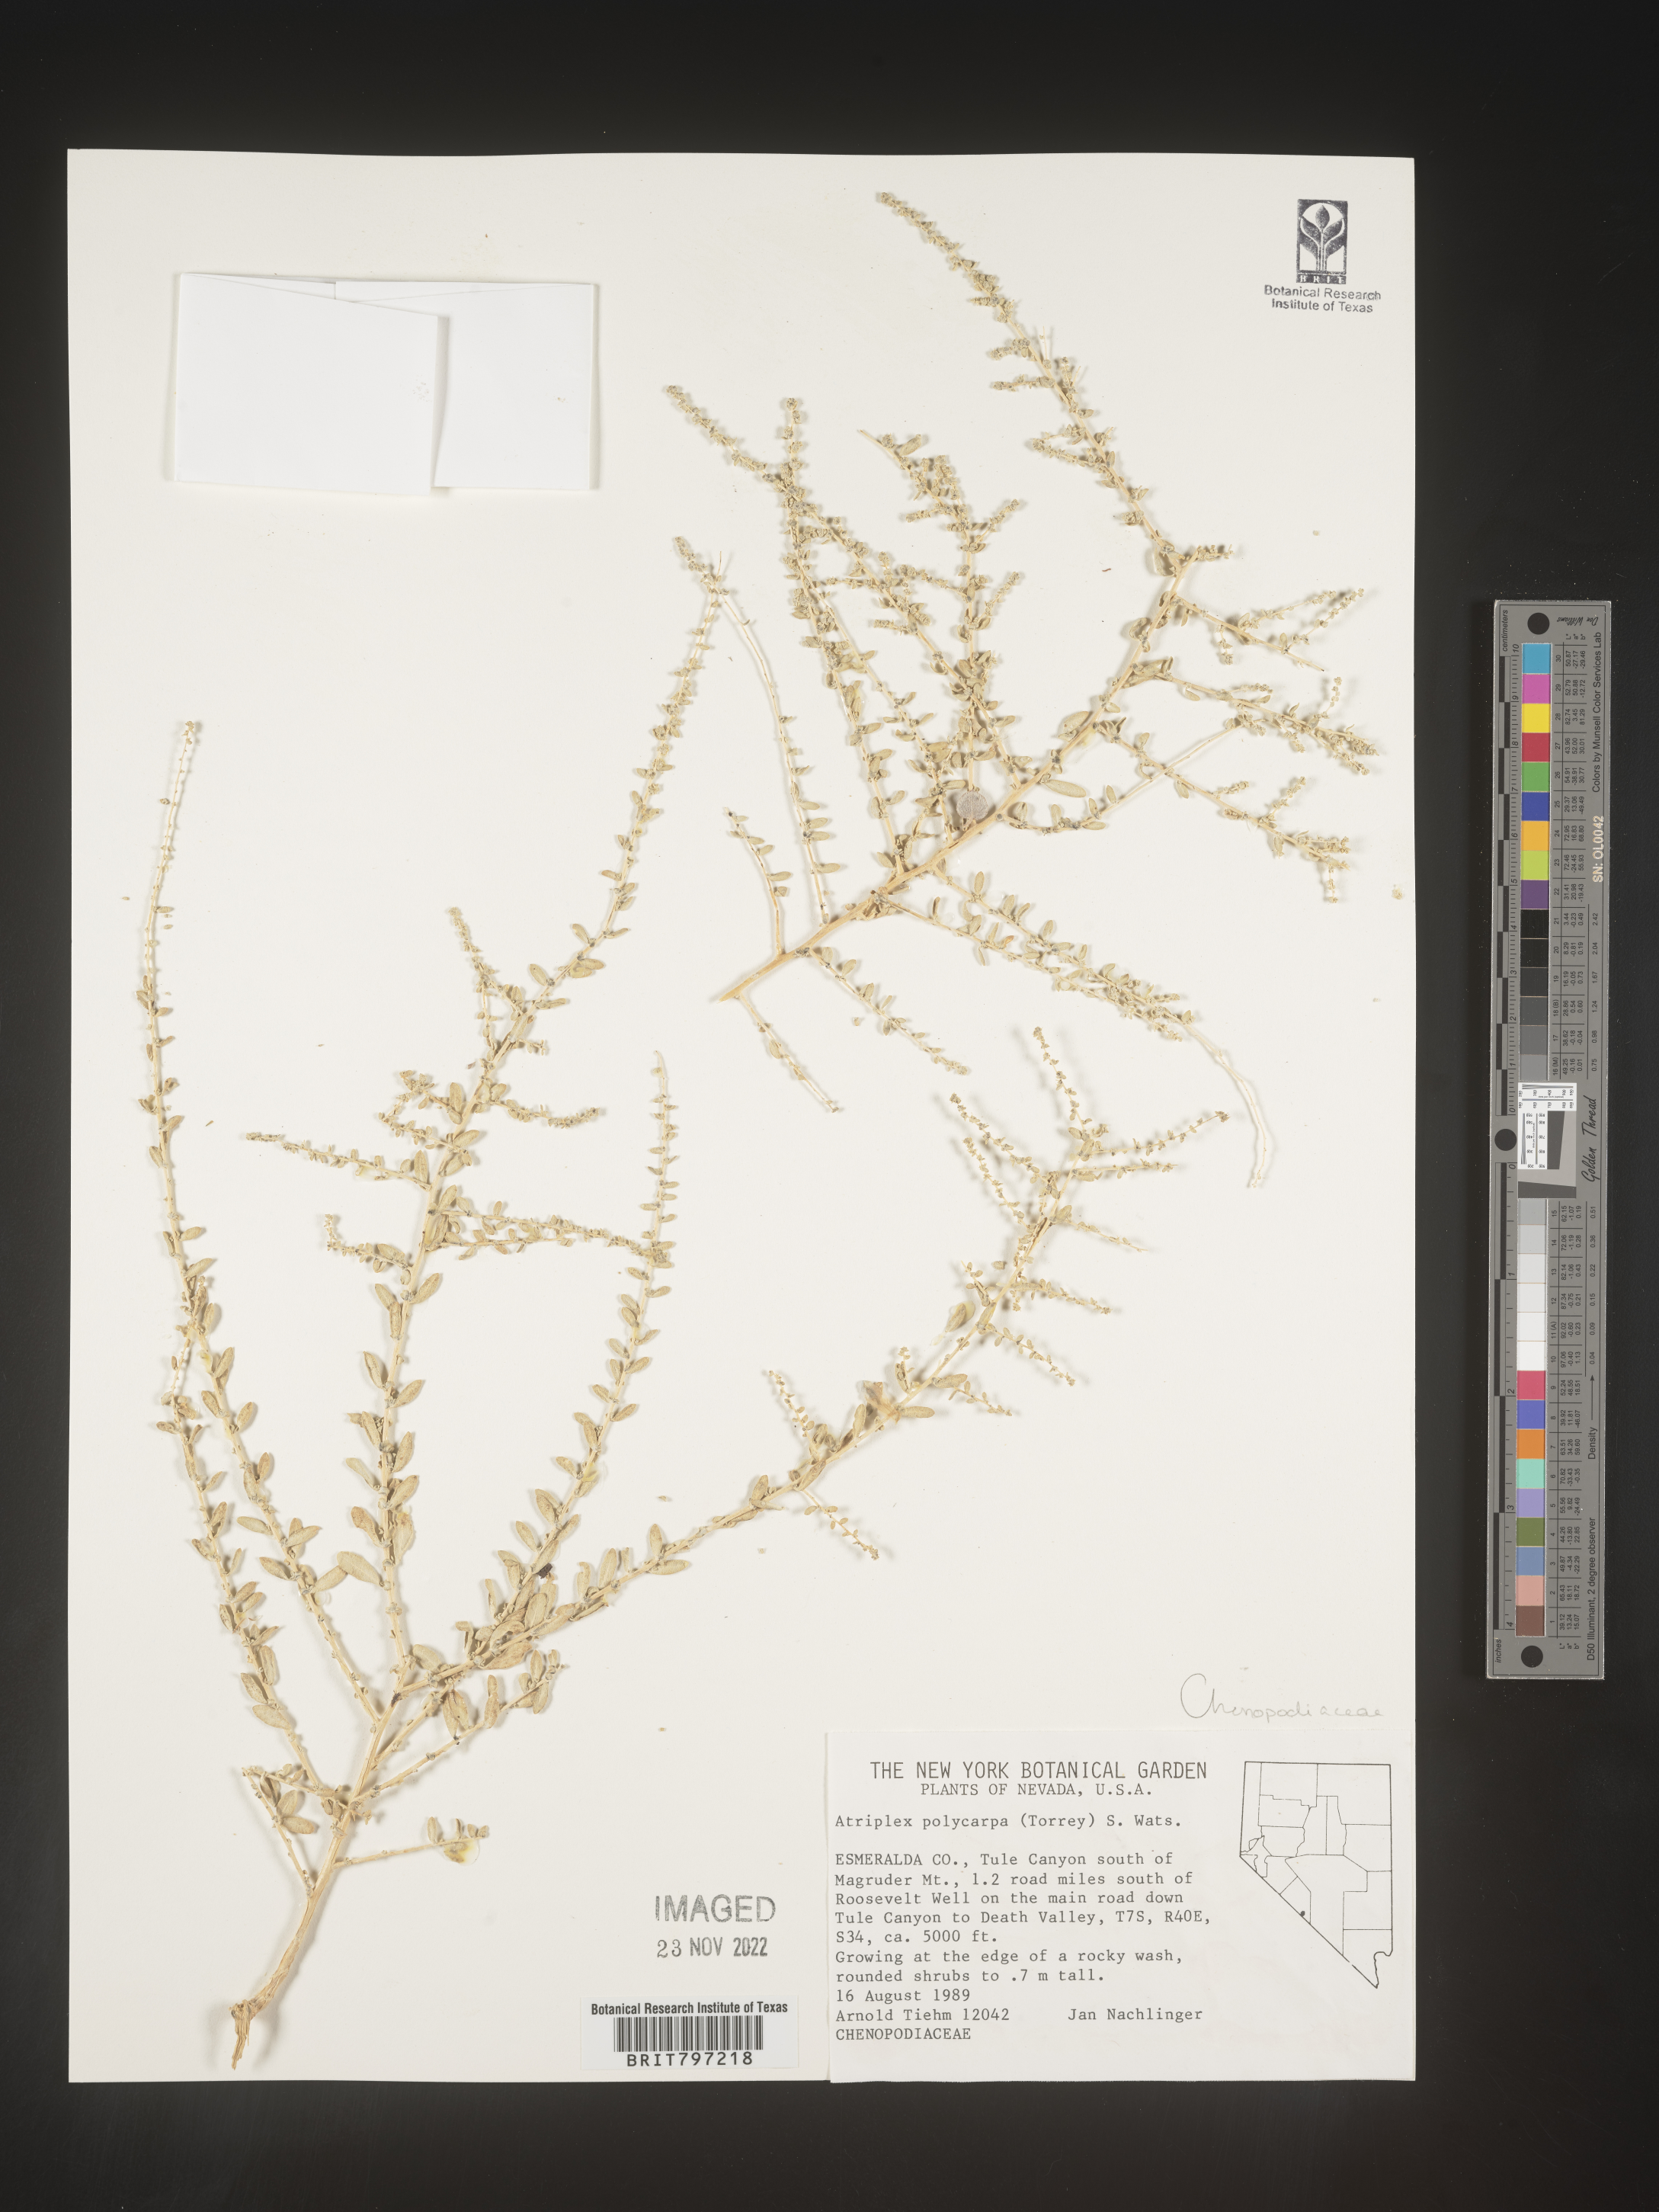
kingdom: Plantae
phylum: Tracheophyta
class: Magnoliopsida
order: Caryophyllales
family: Amaranthaceae
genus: Atriplex
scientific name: Atriplex polycarpa
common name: Desert saltbush
